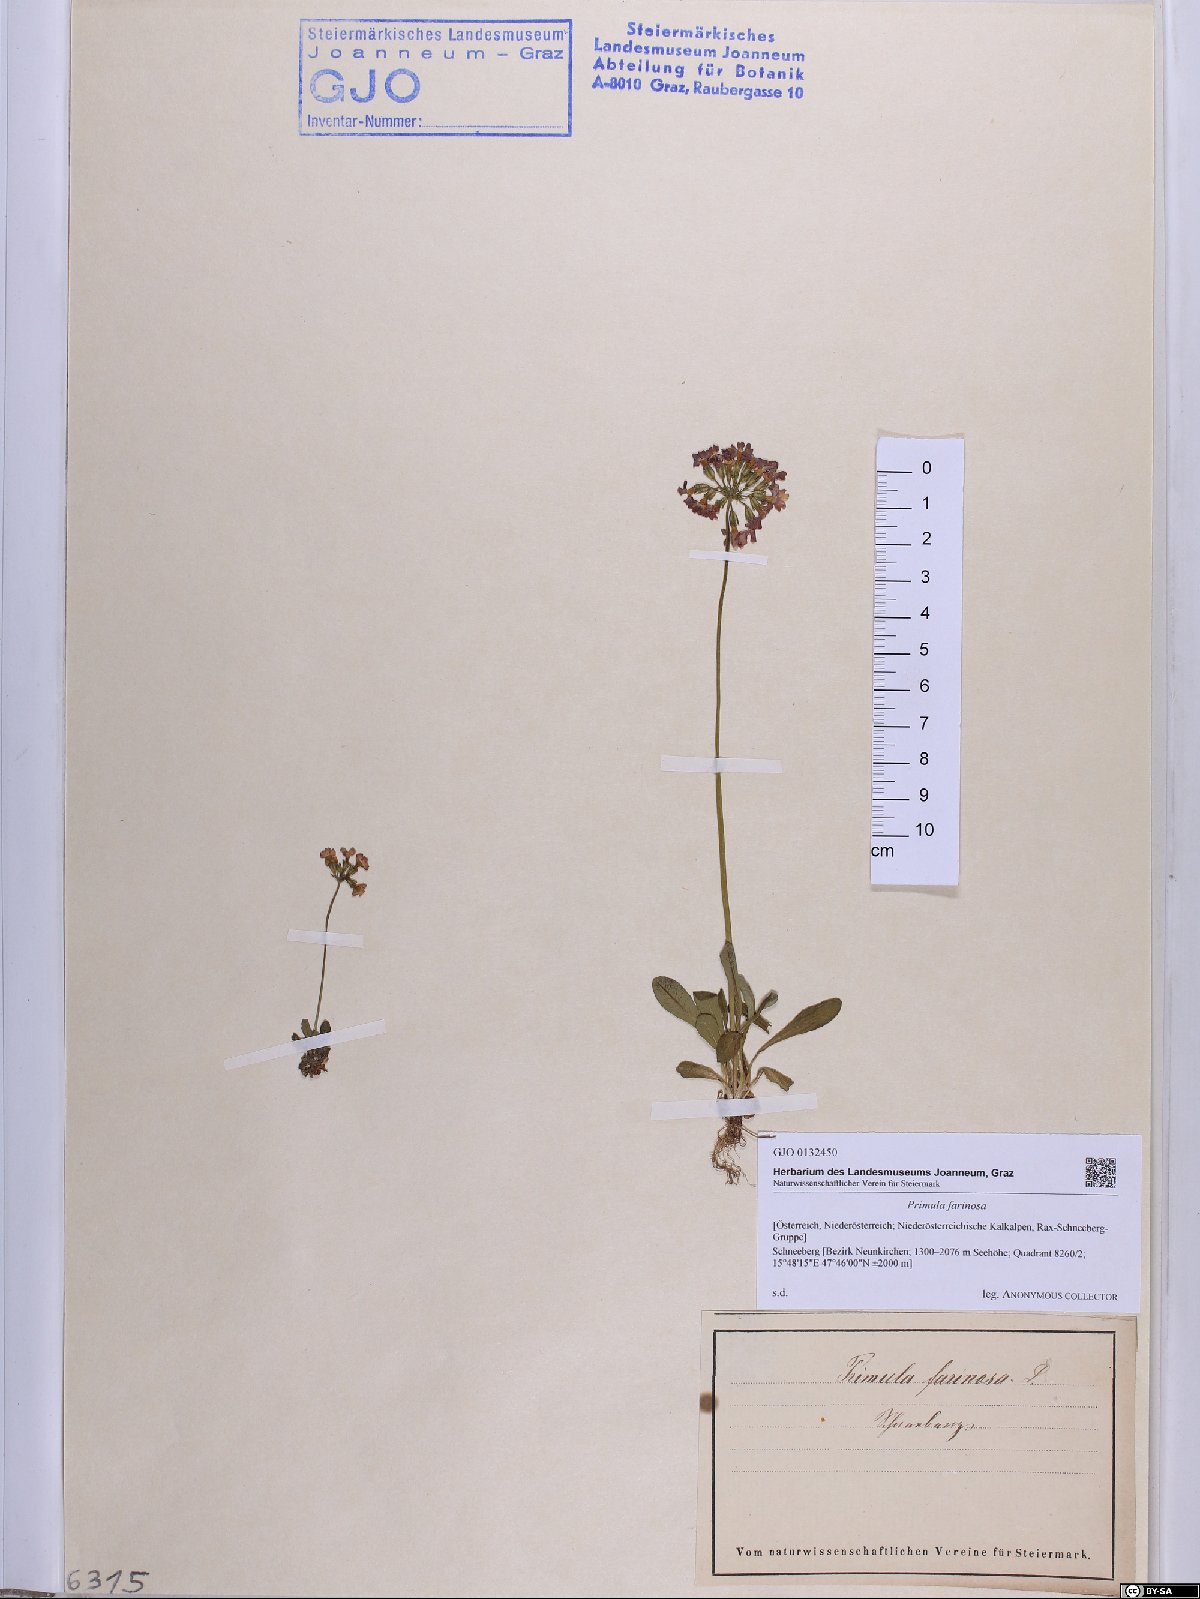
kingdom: Plantae
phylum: Tracheophyta
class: Magnoliopsida
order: Ericales
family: Primulaceae
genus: Primula
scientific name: Primula farinosa
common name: Bird's-eye primrose
